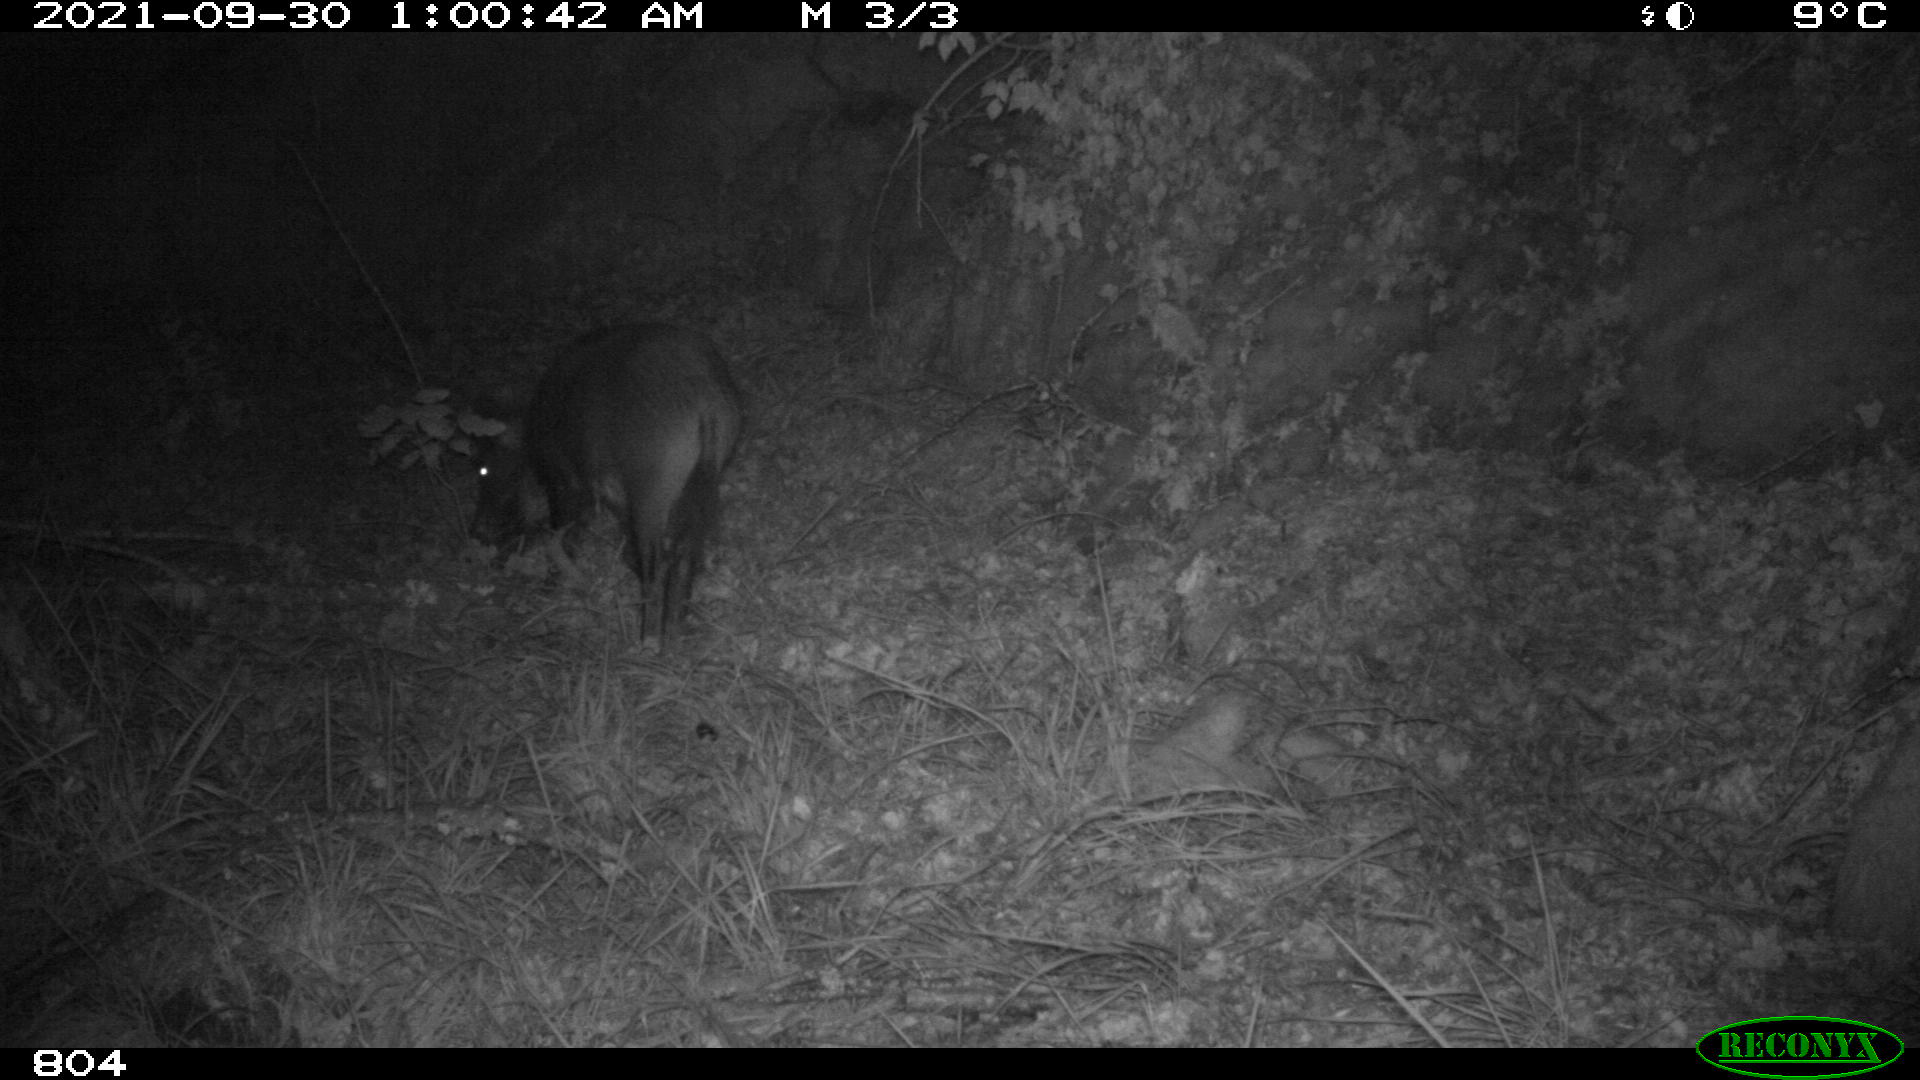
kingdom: Animalia
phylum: Chordata
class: Mammalia
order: Artiodactyla
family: Suidae
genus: Sus
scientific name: Sus scrofa
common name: Wild boar
